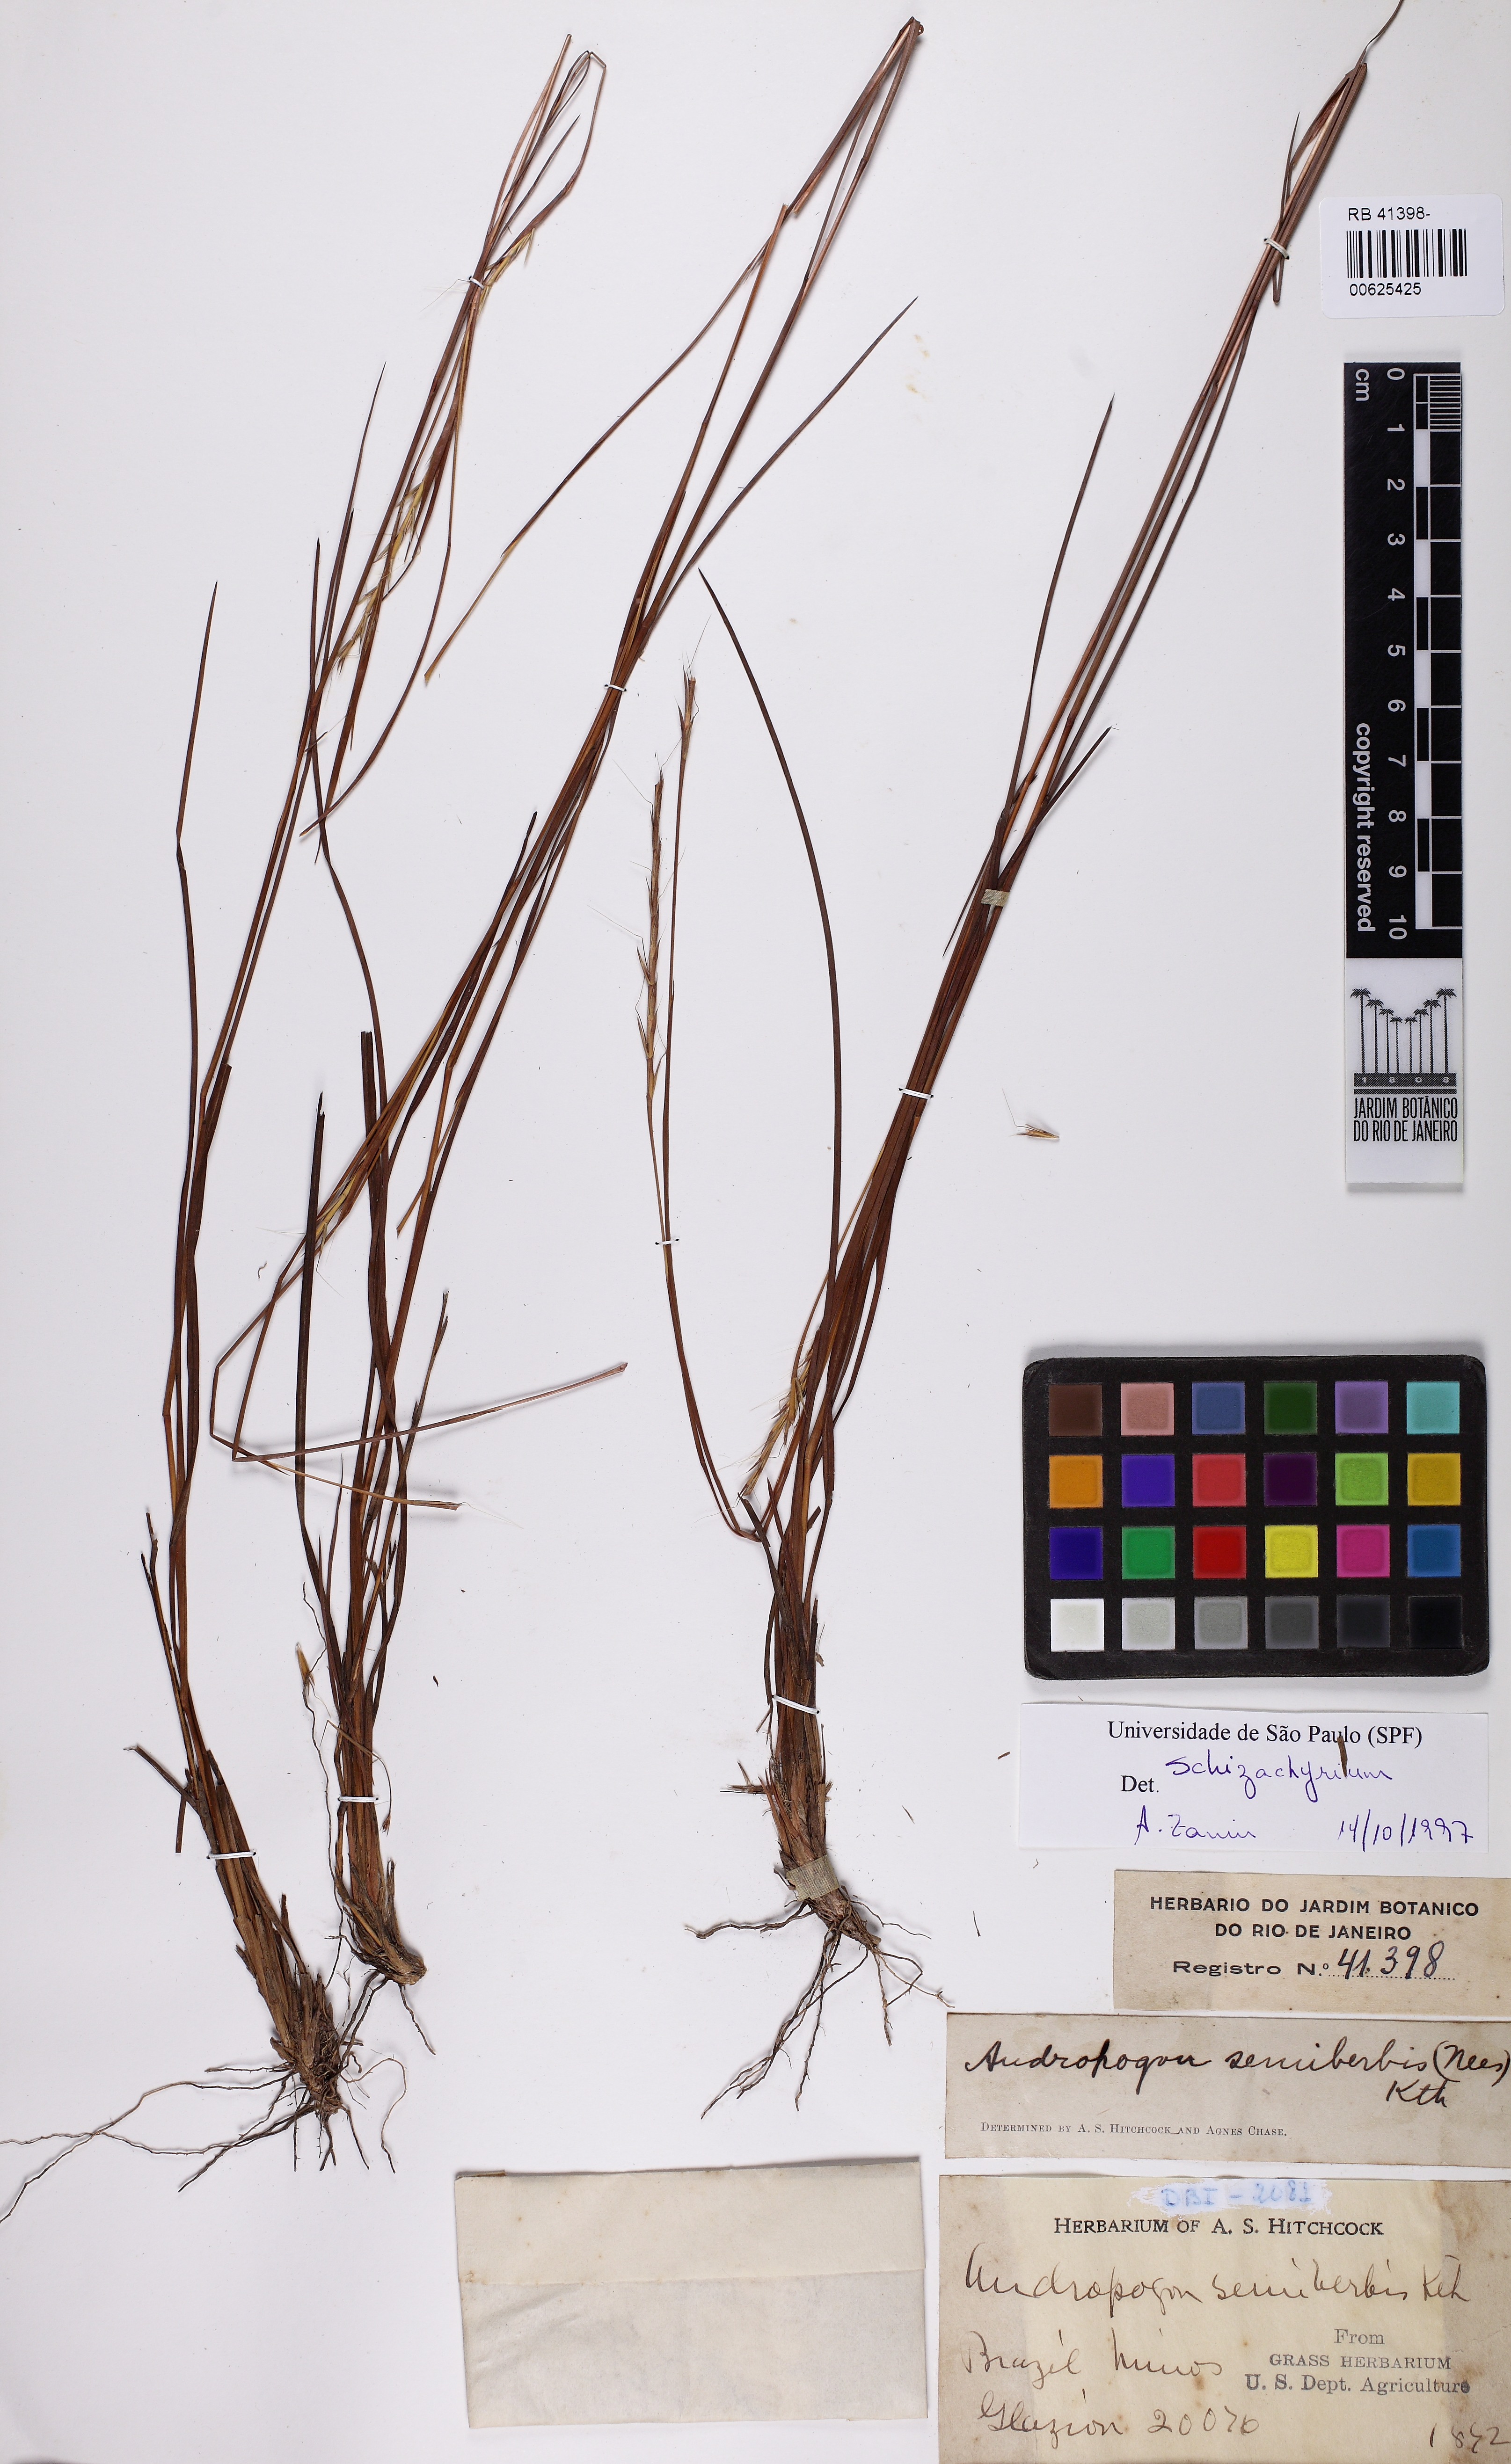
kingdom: Plantae
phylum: Tracheophyta
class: Liliopsida
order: Poales
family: Poaceae
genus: Schizachyrium
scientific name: Schizachyrium
